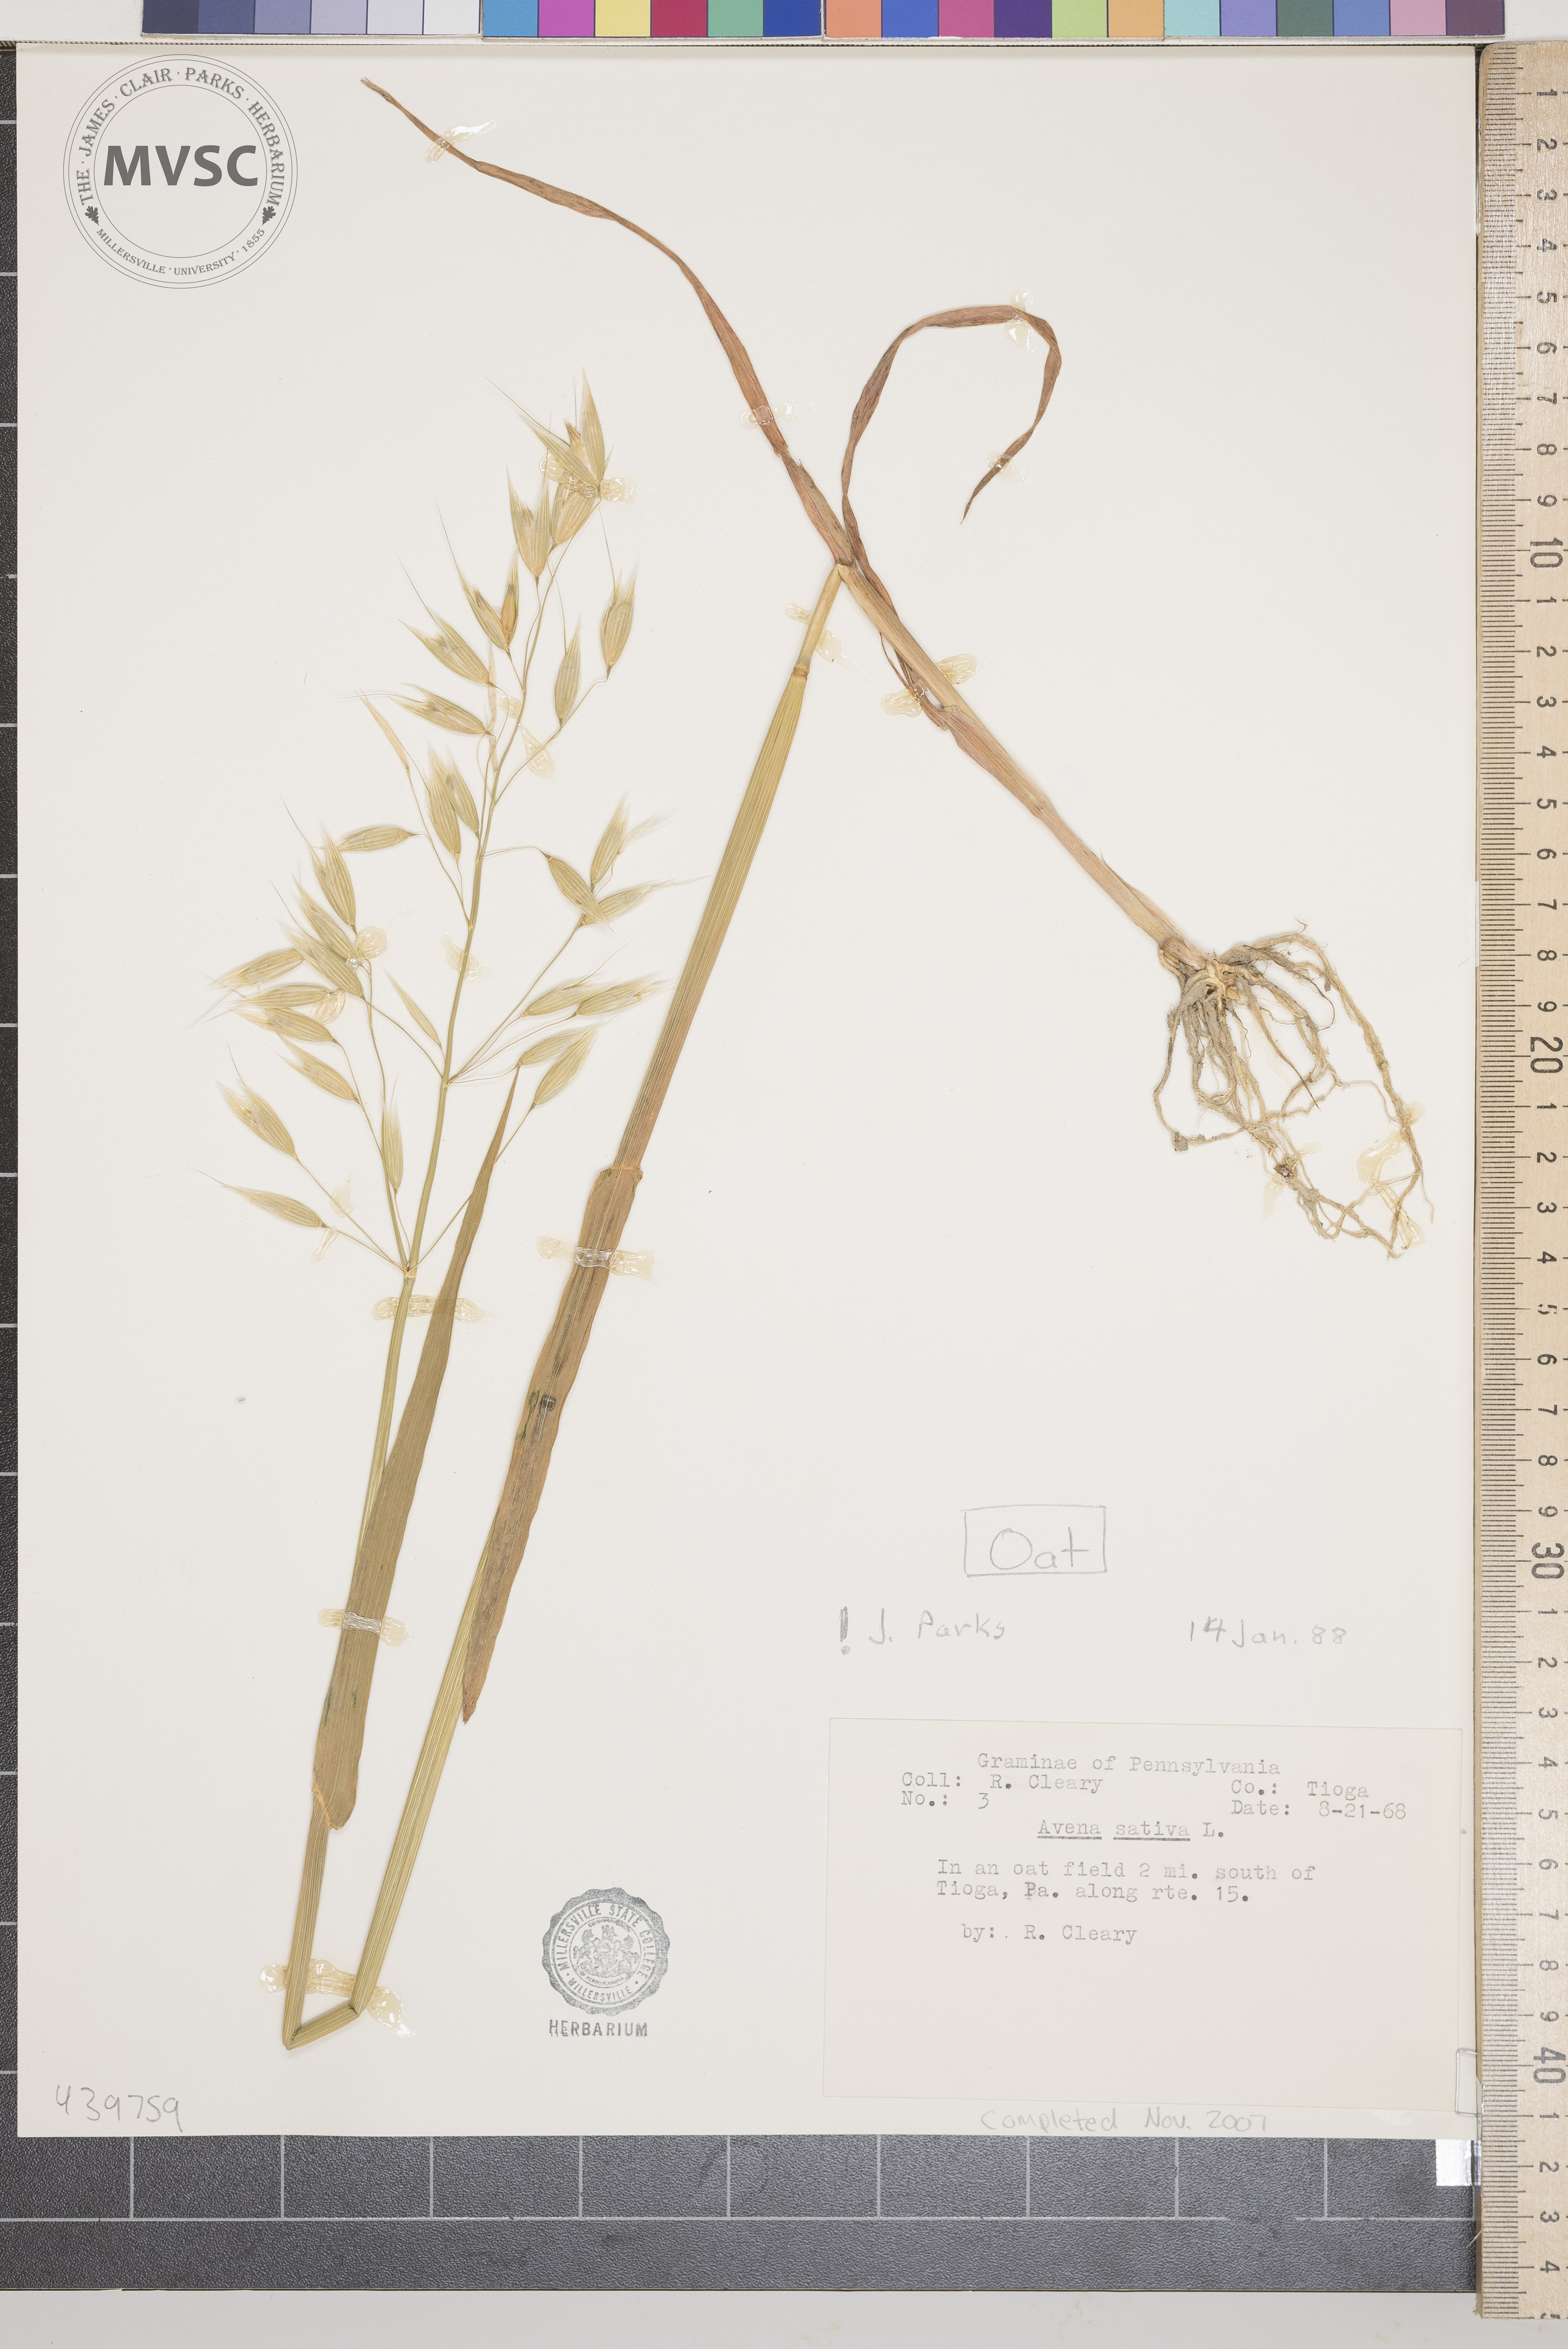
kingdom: Plantae
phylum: Tracheophyta
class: Liliopsida
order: Poales
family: Poaceae
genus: Avena
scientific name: Avena sativa
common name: Oat
